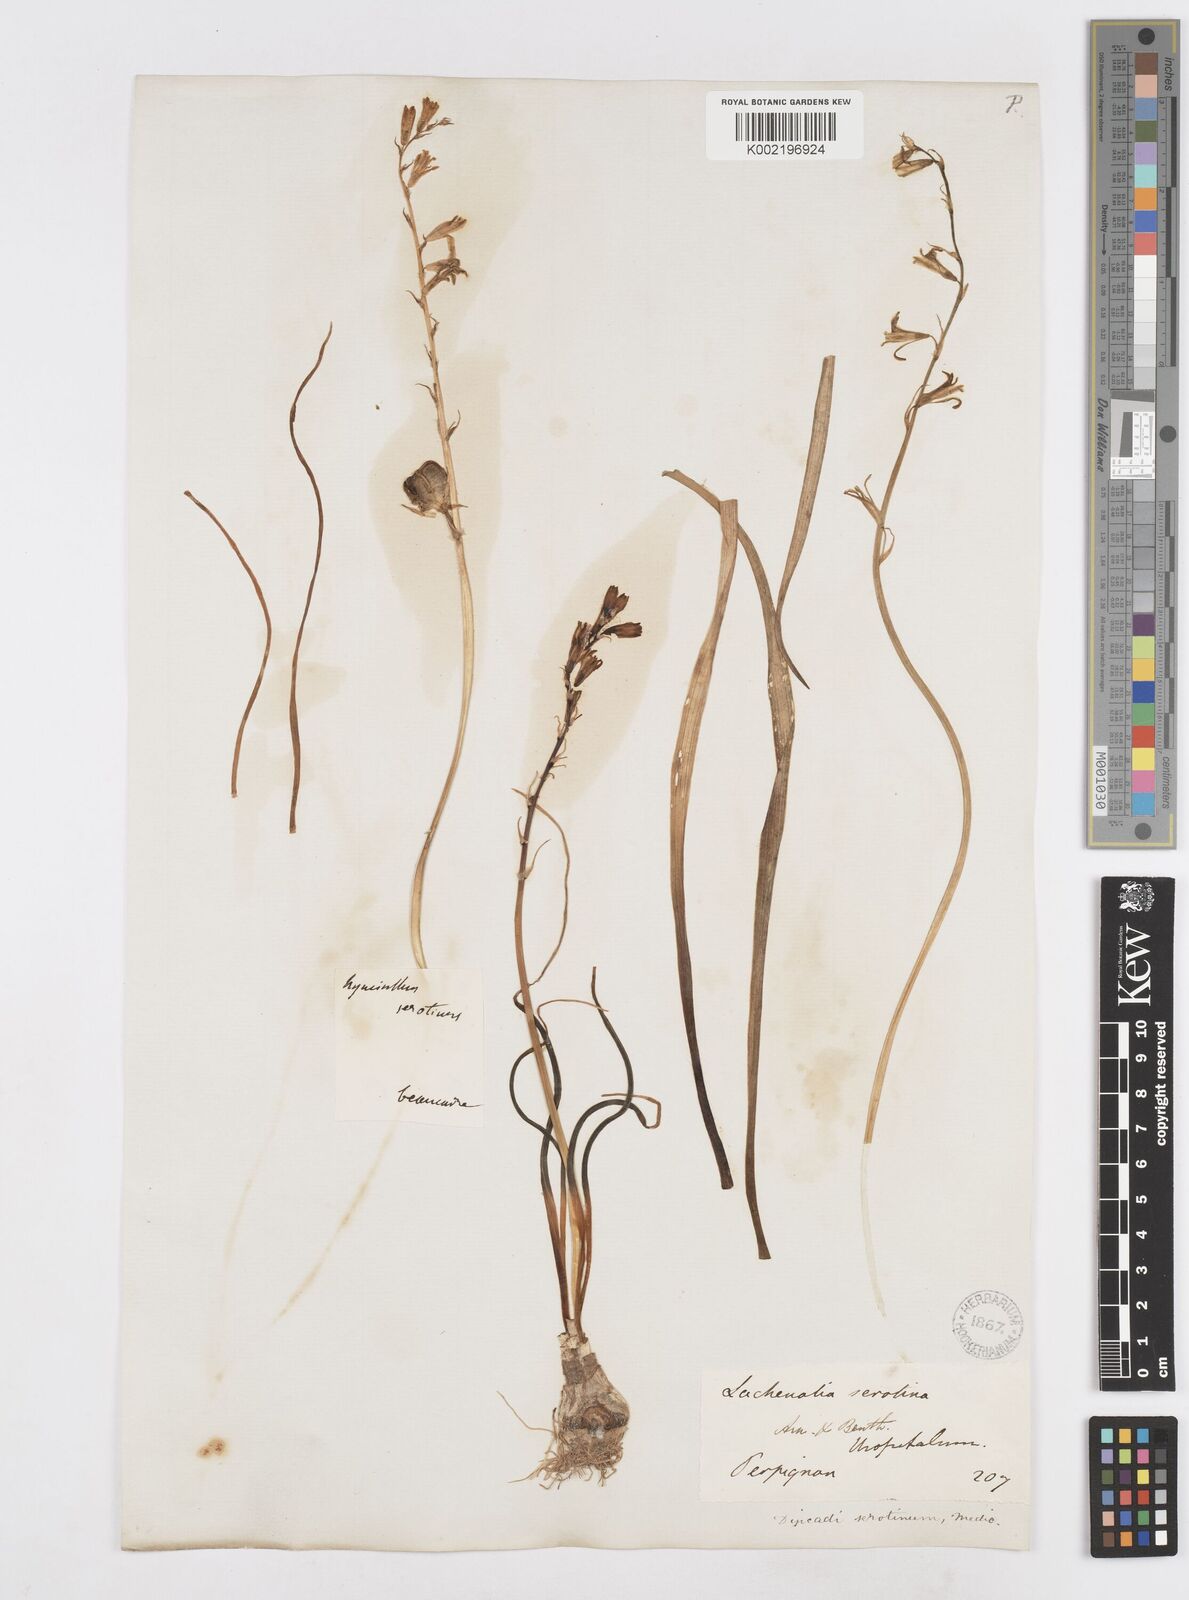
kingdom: Plantae
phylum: Tracheophyta
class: Liliopsida
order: Asparagales
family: Asparagaceae
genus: Dipcadi
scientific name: Dipcadi serotinum
